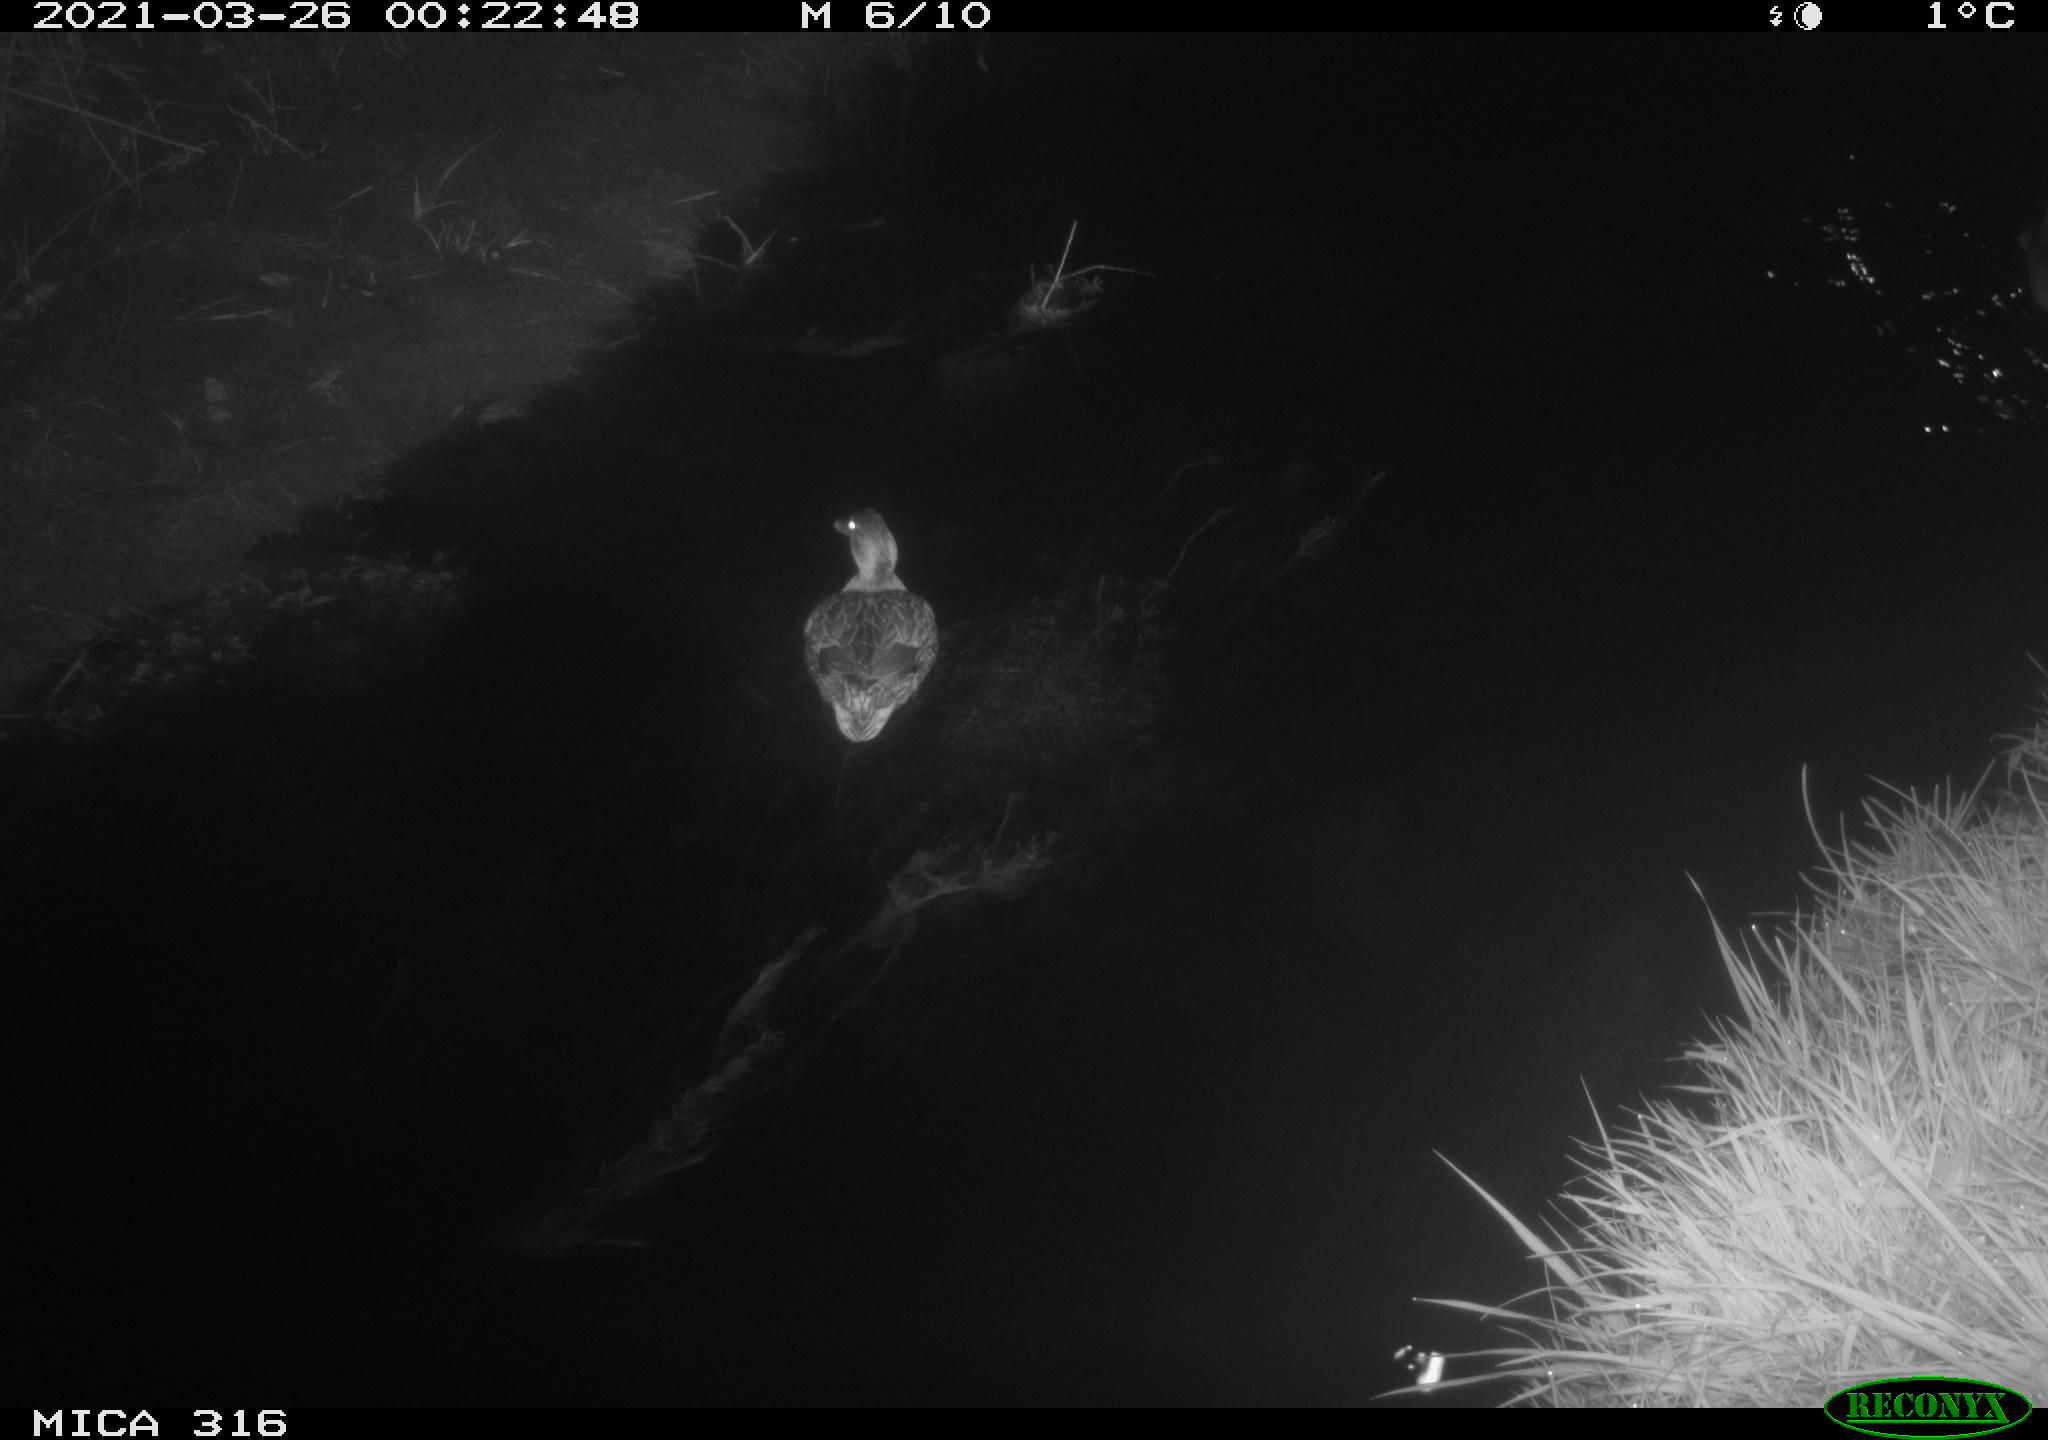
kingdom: Animalia
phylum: Chordata
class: Aves
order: Anseriformes
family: Anatidae
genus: Anas
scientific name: Anas platyrhynchos
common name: Mallard
